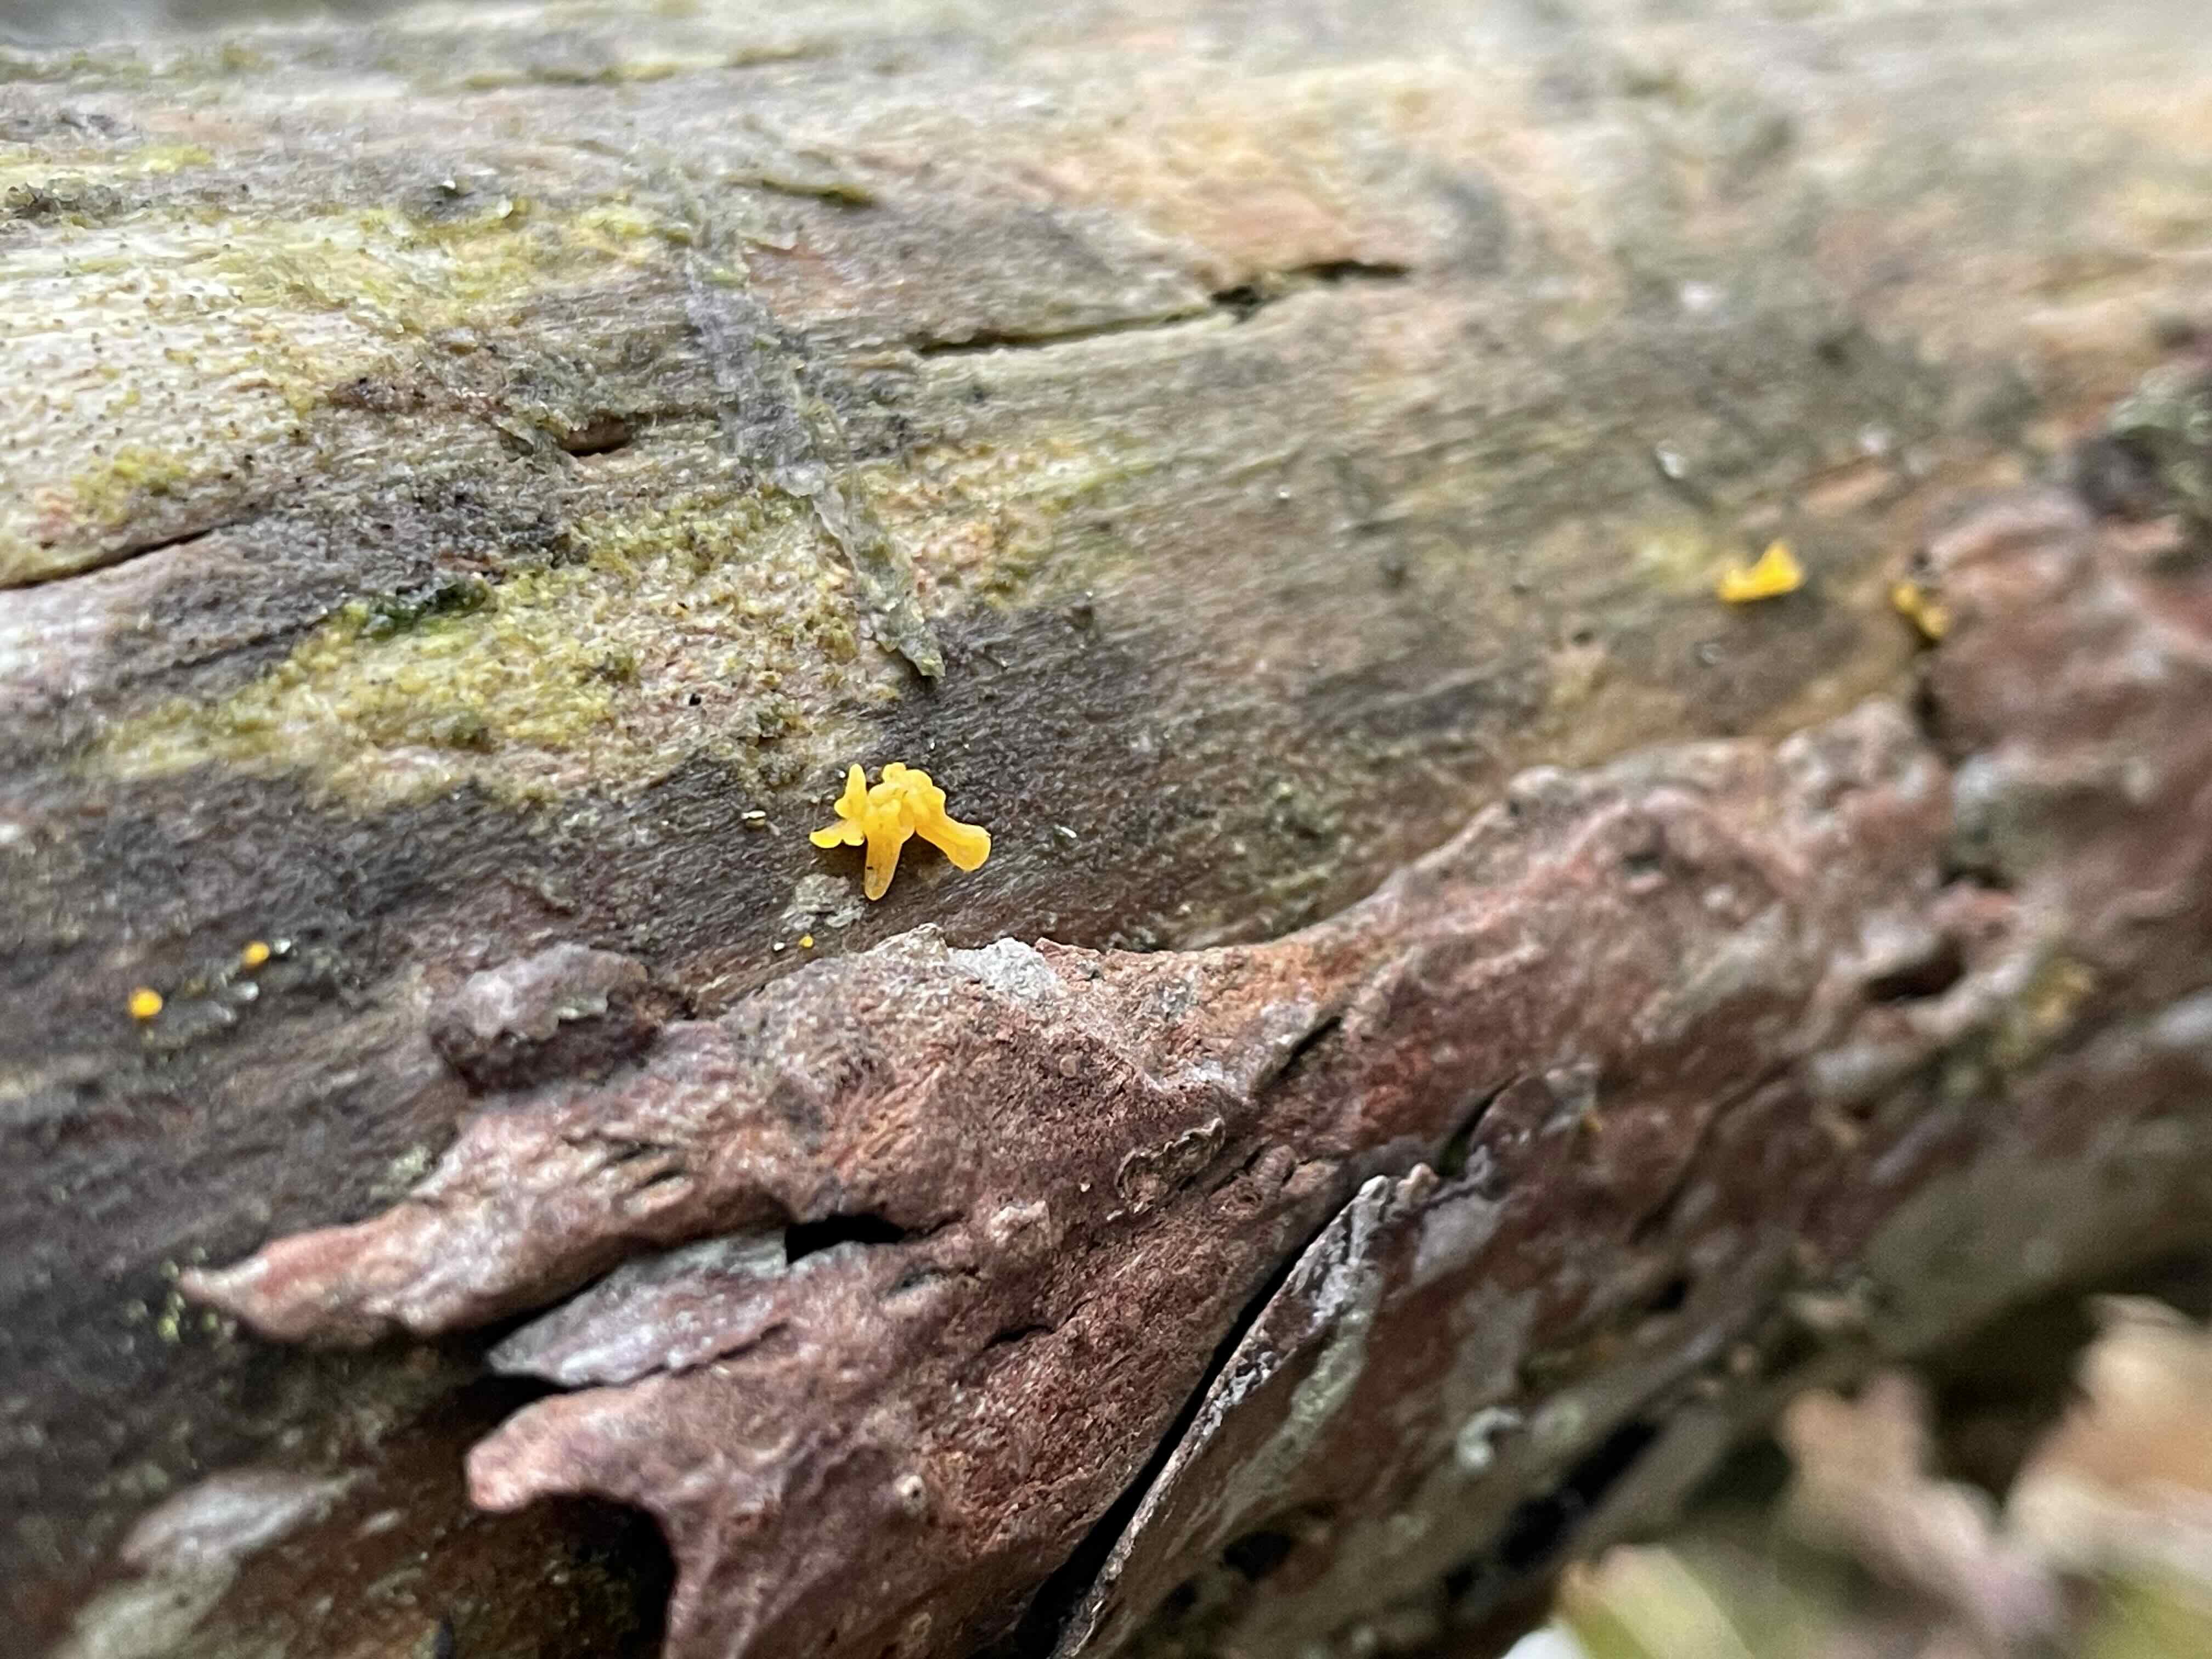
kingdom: Fungi
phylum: Basidiomycota
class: Dacrymycetes
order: Dacrymycetales
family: Dacrymycetaceae
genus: Calocera
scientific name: Calocera furcata
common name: fyrre-guldgaffel
